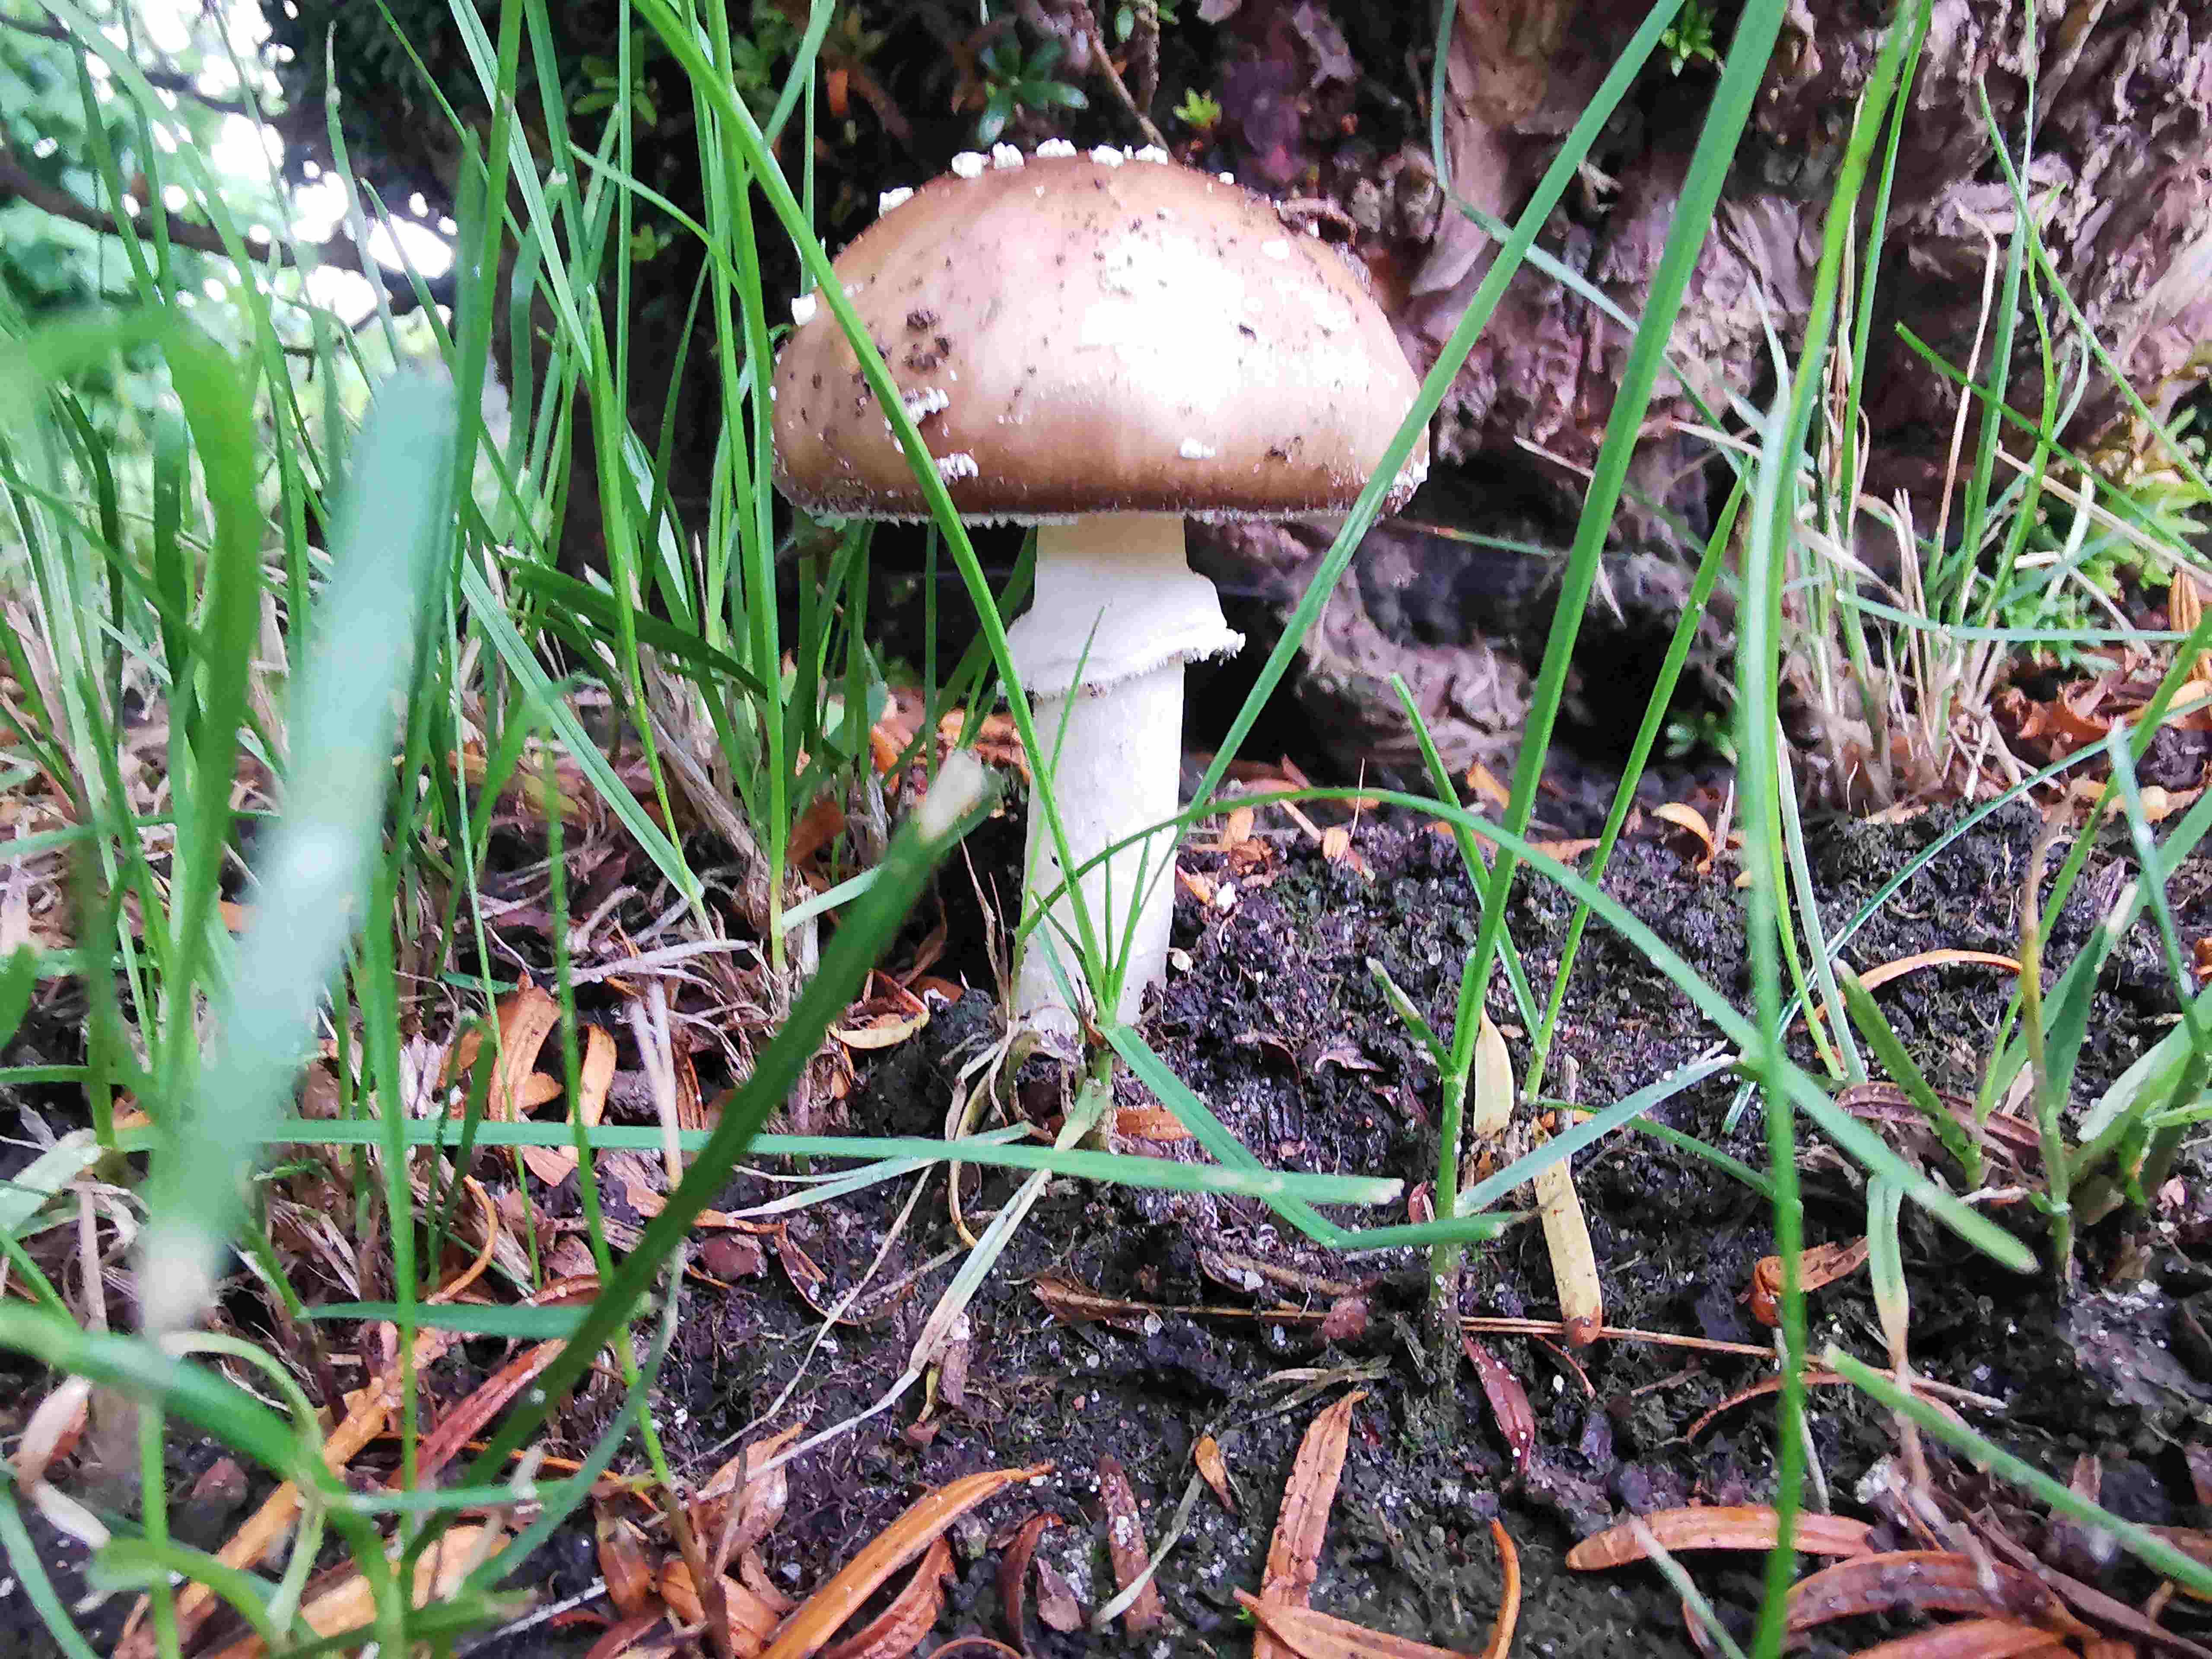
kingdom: Fungi
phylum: Basidiomycota
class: Agaricomycetes
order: Agaricales
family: Amanitaceae
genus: Amanita
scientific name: Amanita pantherina
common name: panter-fluesvamp
